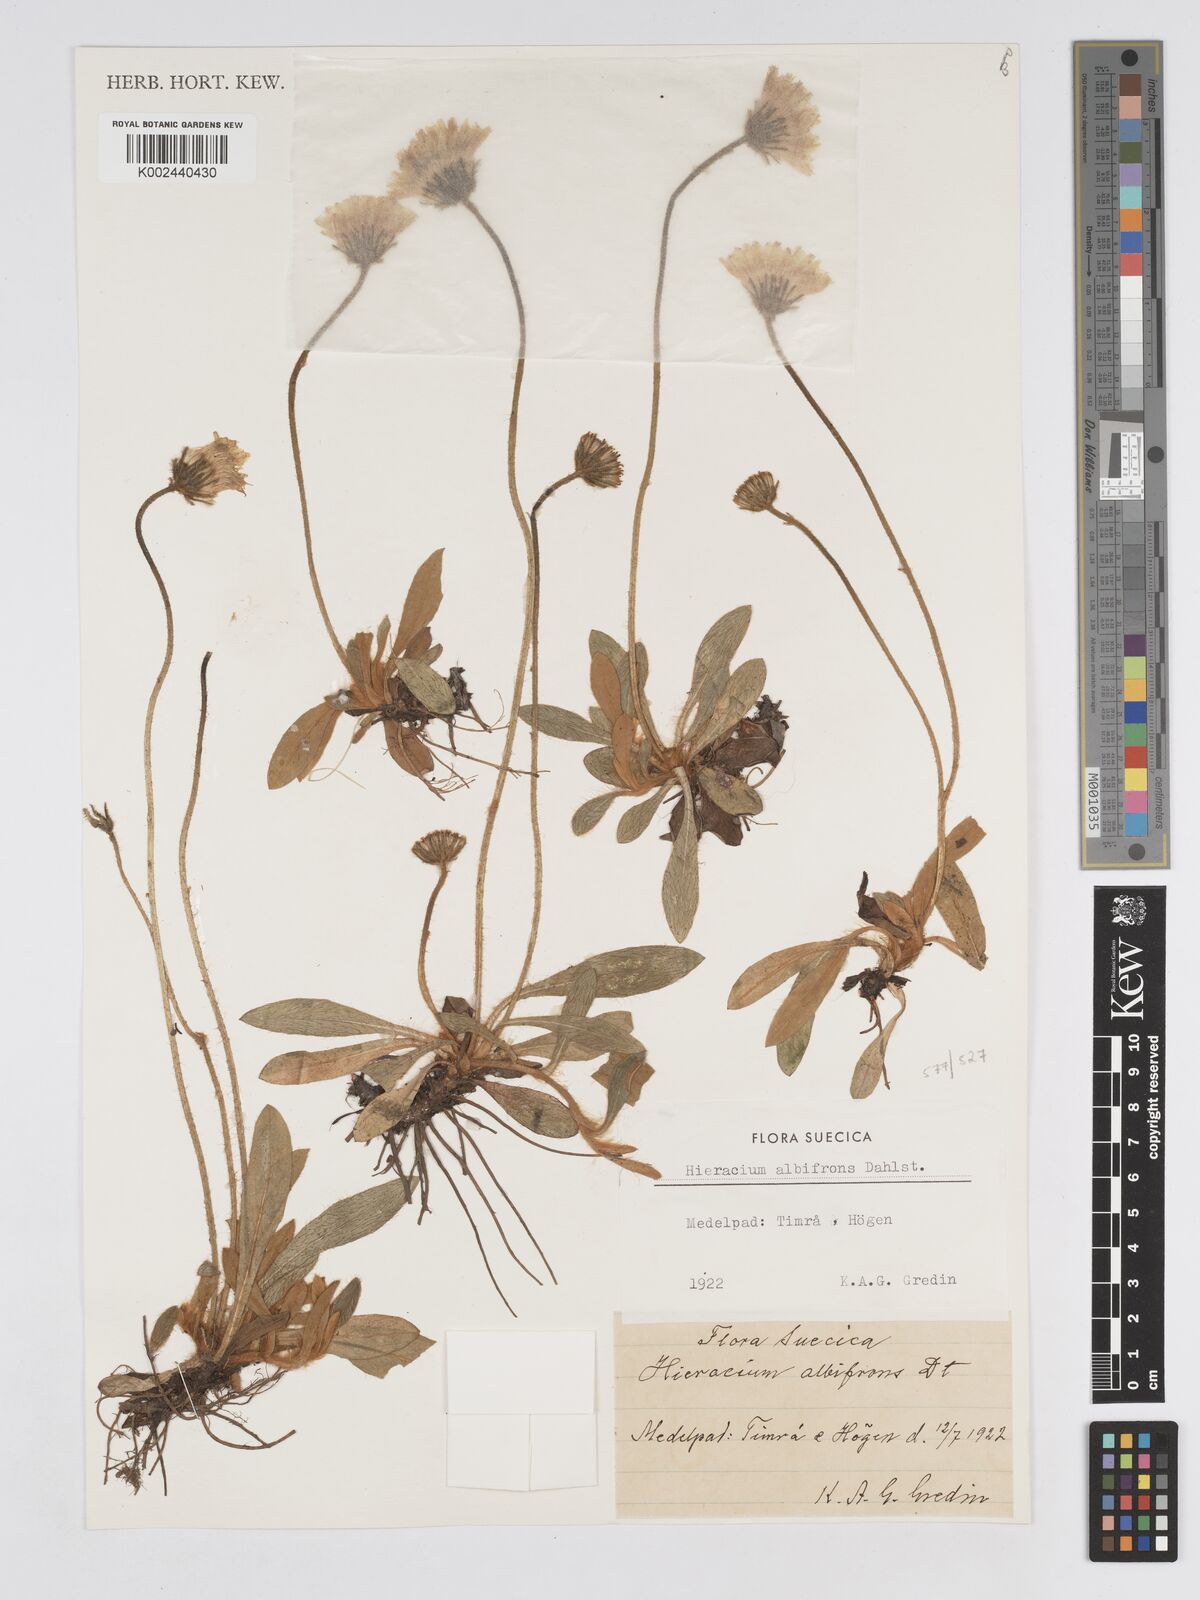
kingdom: Plantae
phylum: Tracheophyta
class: Magnoliopsida
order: Asterales
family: Asteraceae
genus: Pilosella
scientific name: Pilosella officinarum
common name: Mouse-ear hawkweed
